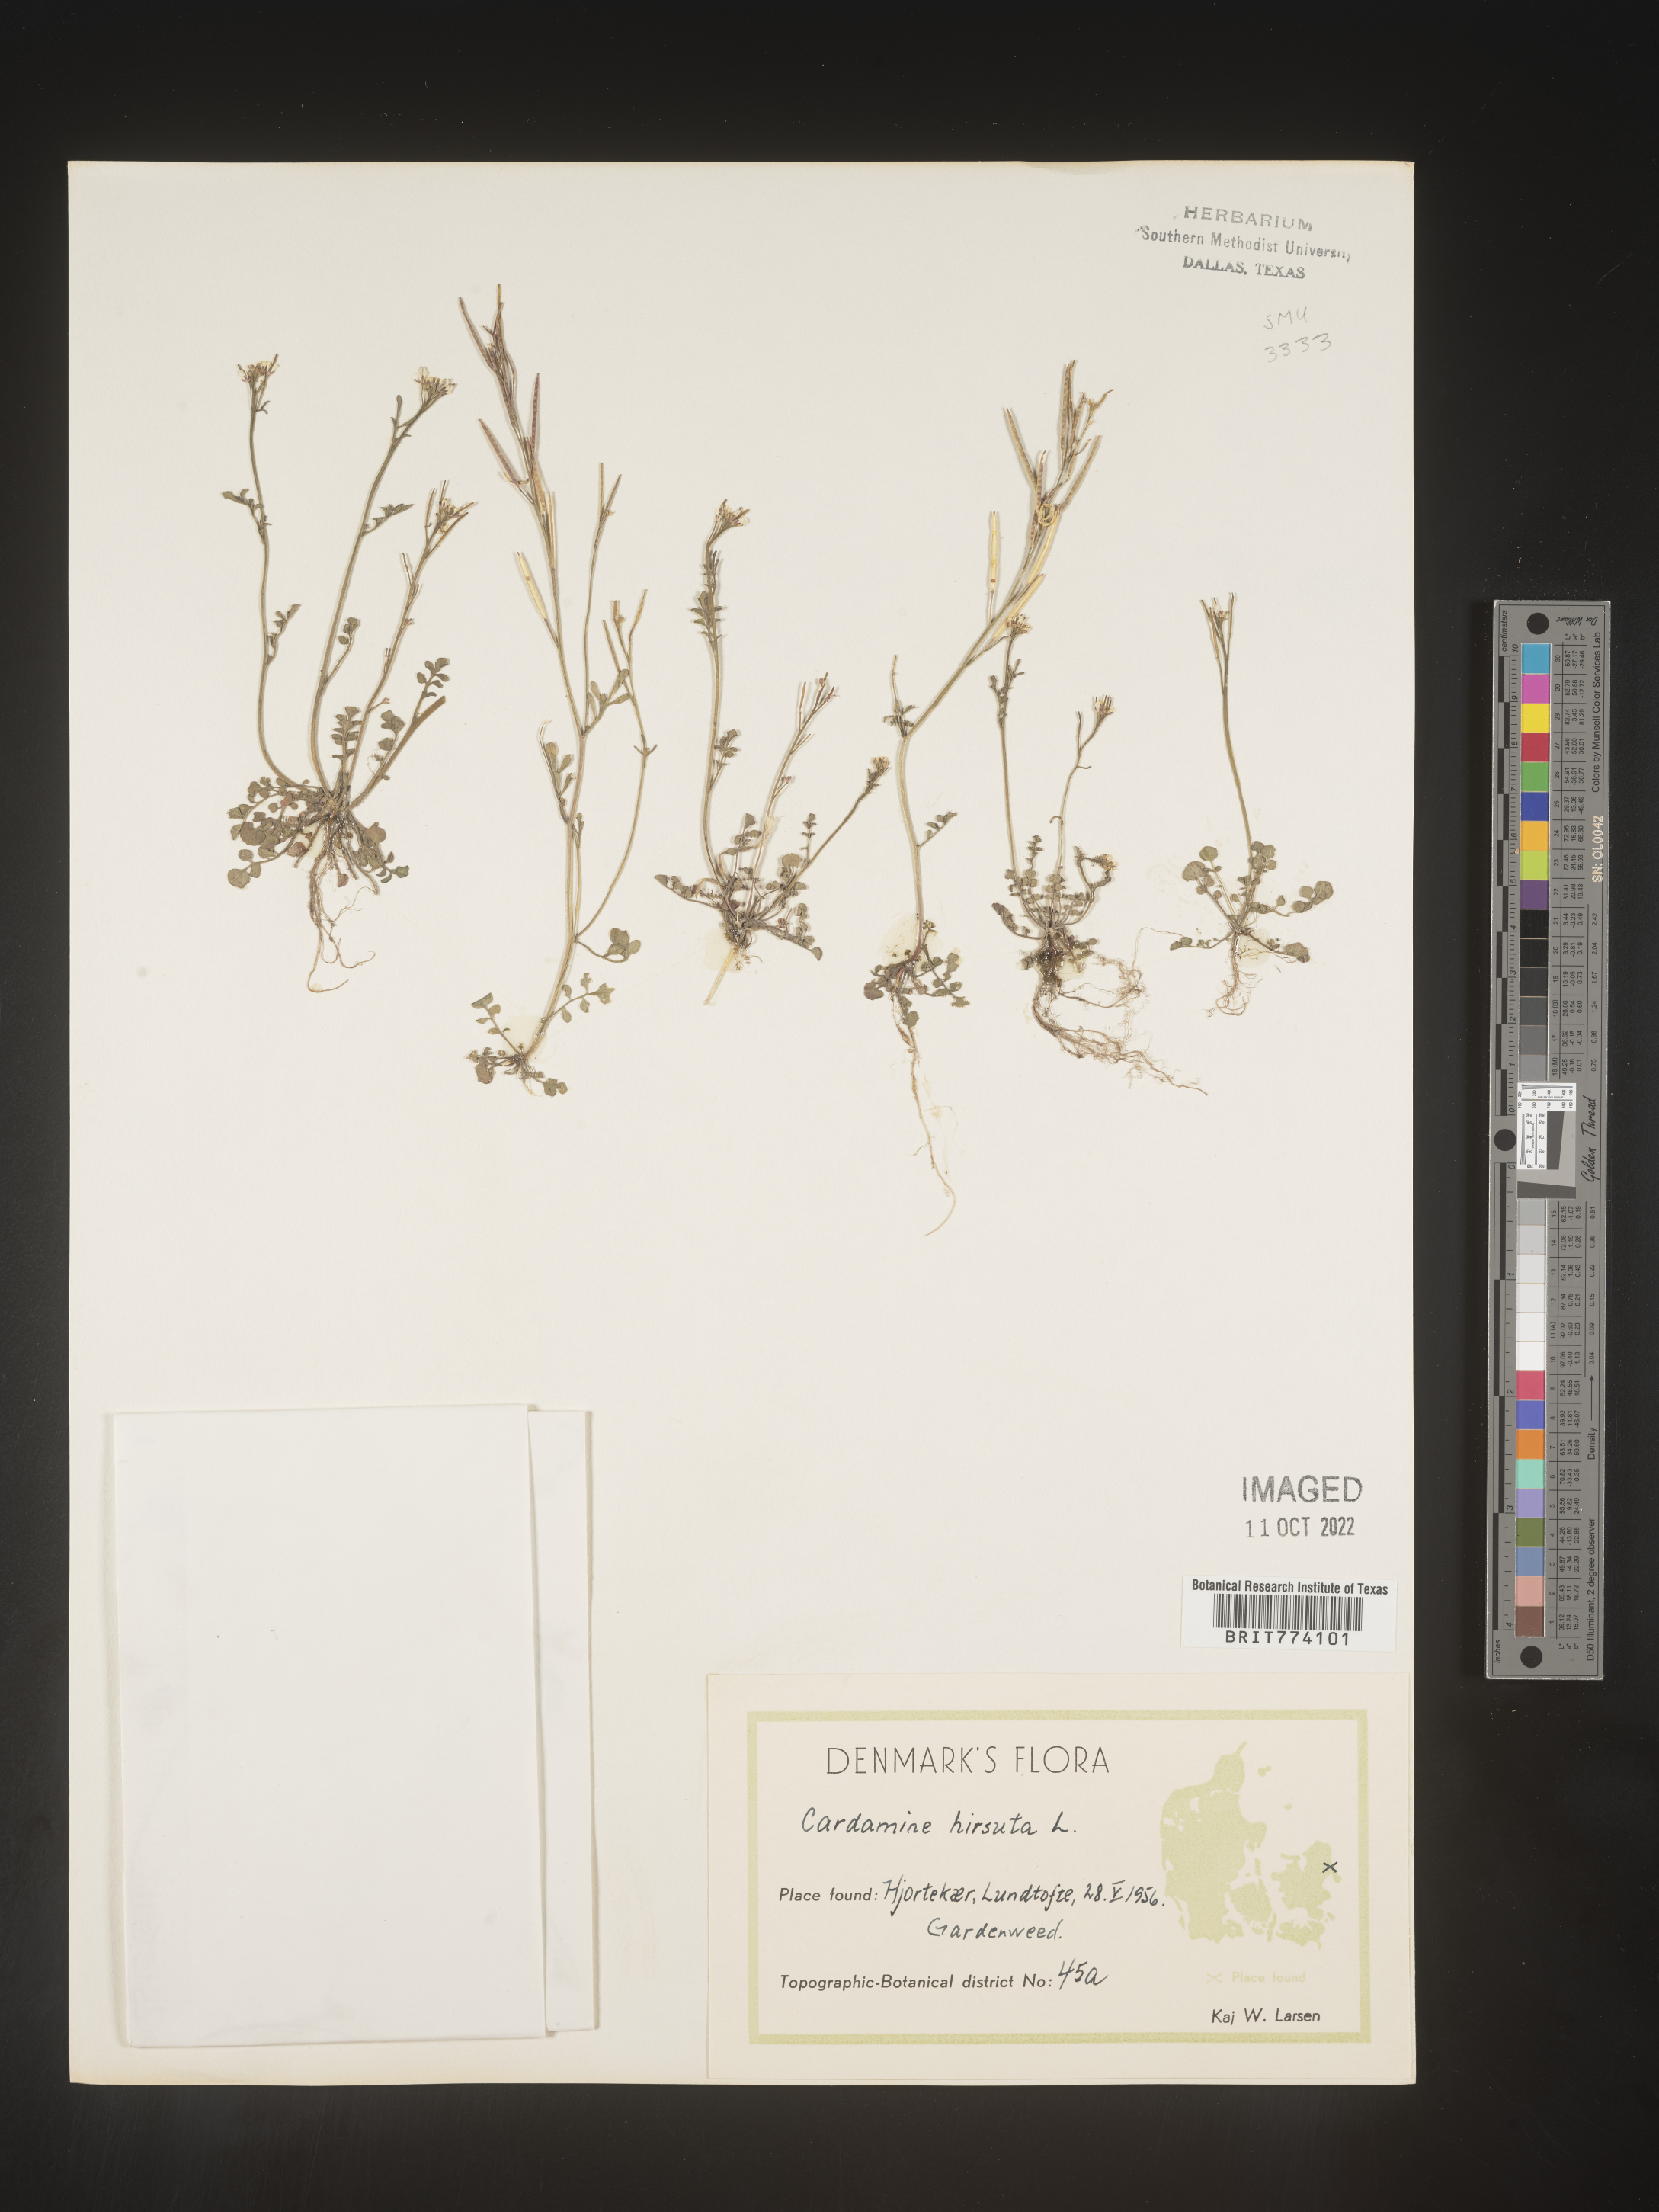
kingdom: Plantae
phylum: Tracheophyta
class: Magnoliopsida
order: Brassicales
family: Brassicaceae
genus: Cardamine
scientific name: Cardamine hirsuta
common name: Hairy bittercress
